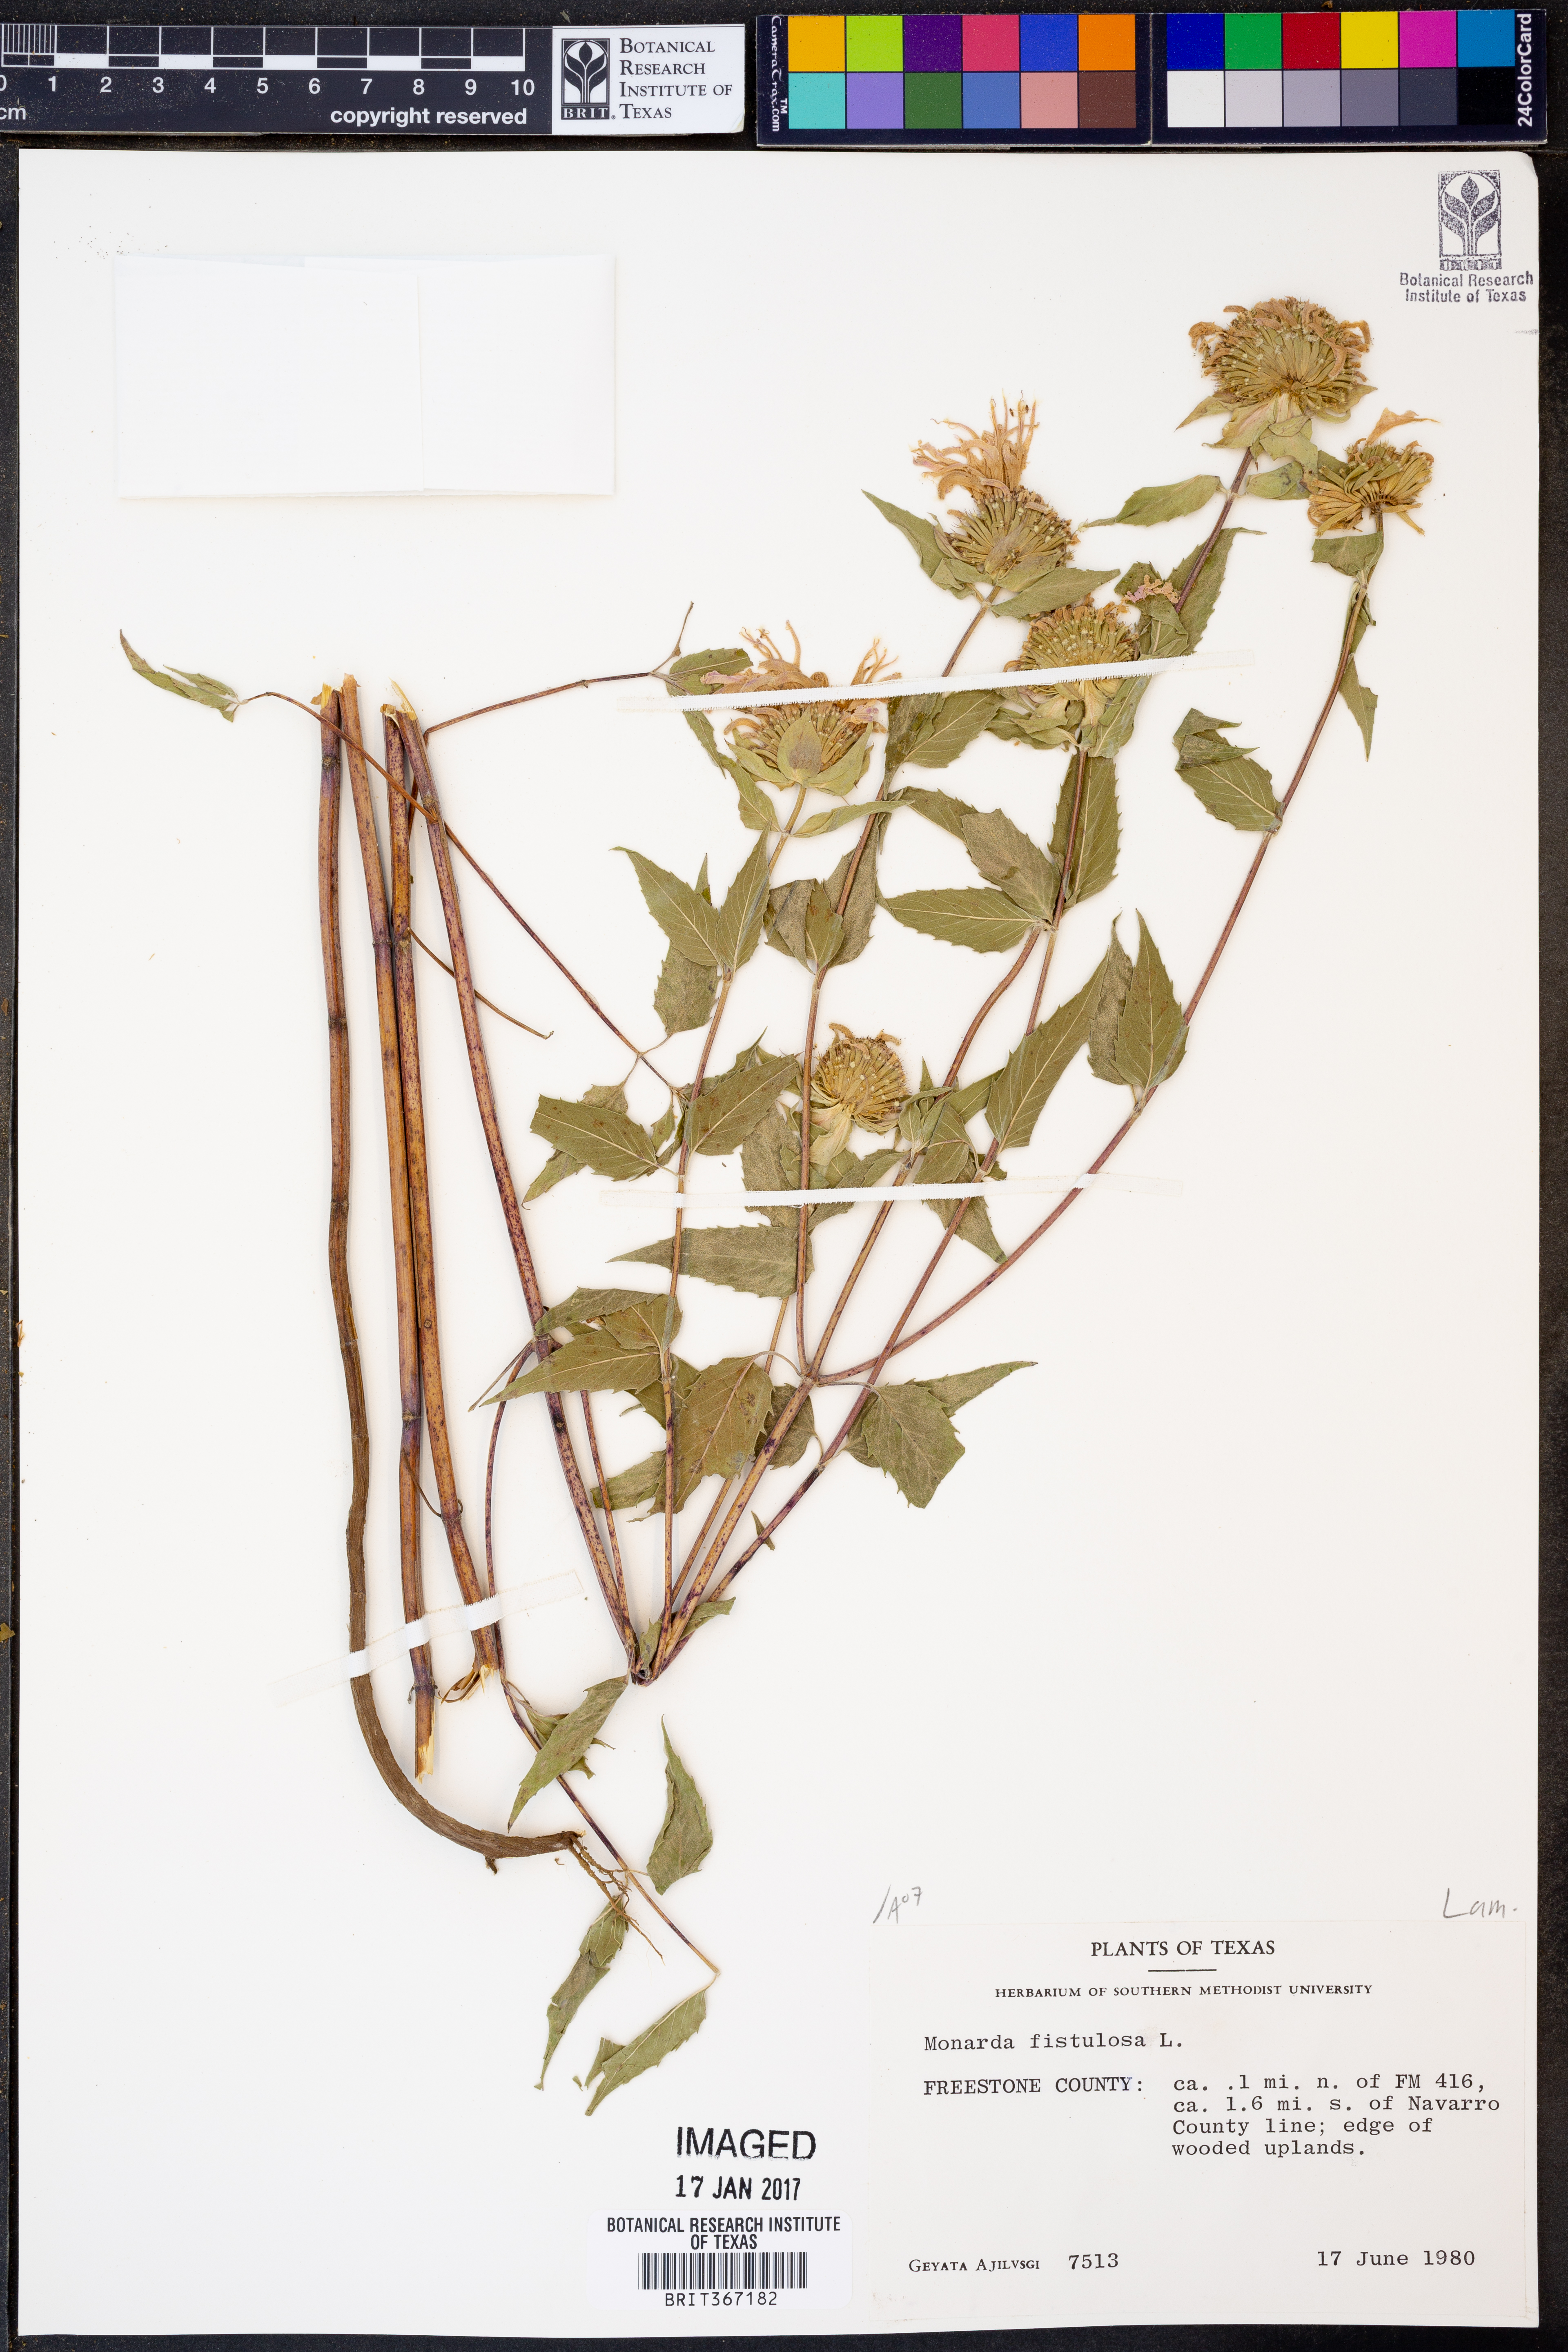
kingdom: Plantae
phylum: Tracheophyta
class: Magnoliopsida
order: Lamiales
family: Lamiaceae
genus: Monarda
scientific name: Monarda fistulosa
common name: Purple beebalm
